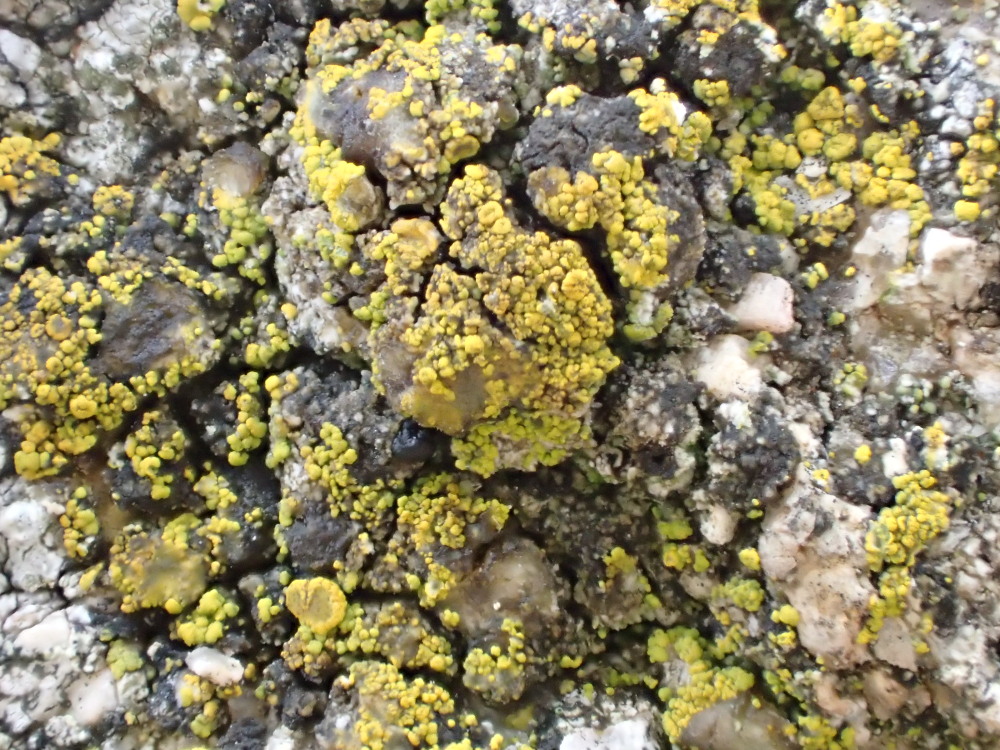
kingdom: Fungi
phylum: Ascomycota
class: Candelariomycetes
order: Candelariales
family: Candelariaceae
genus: Candelariella
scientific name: Candelariella vitellina
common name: almindelig æggeblommelav
